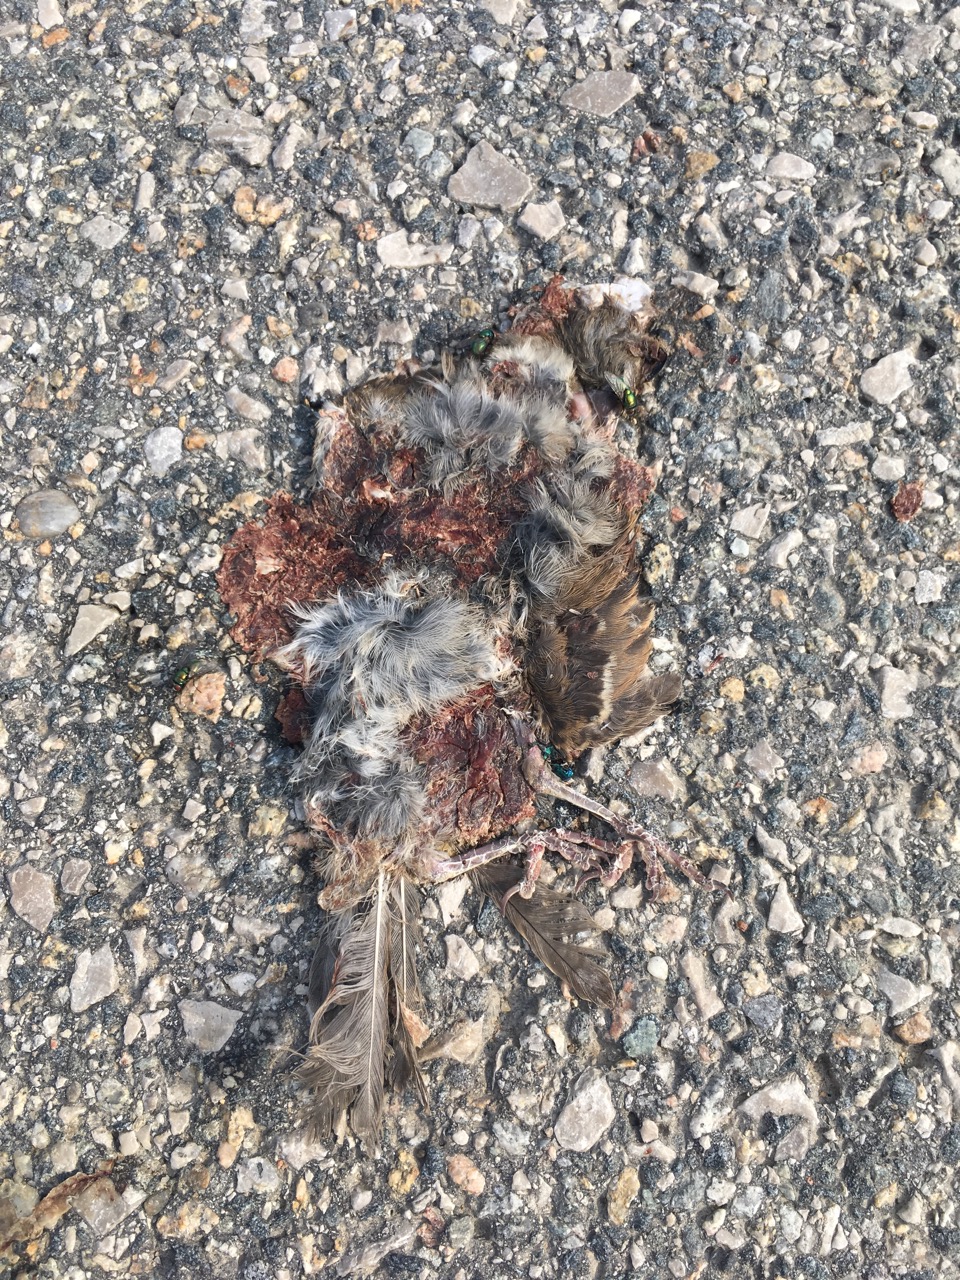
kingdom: Animalia
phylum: Chordata
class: Aves
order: Passeriformes
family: Passeridae
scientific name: Passeridae
